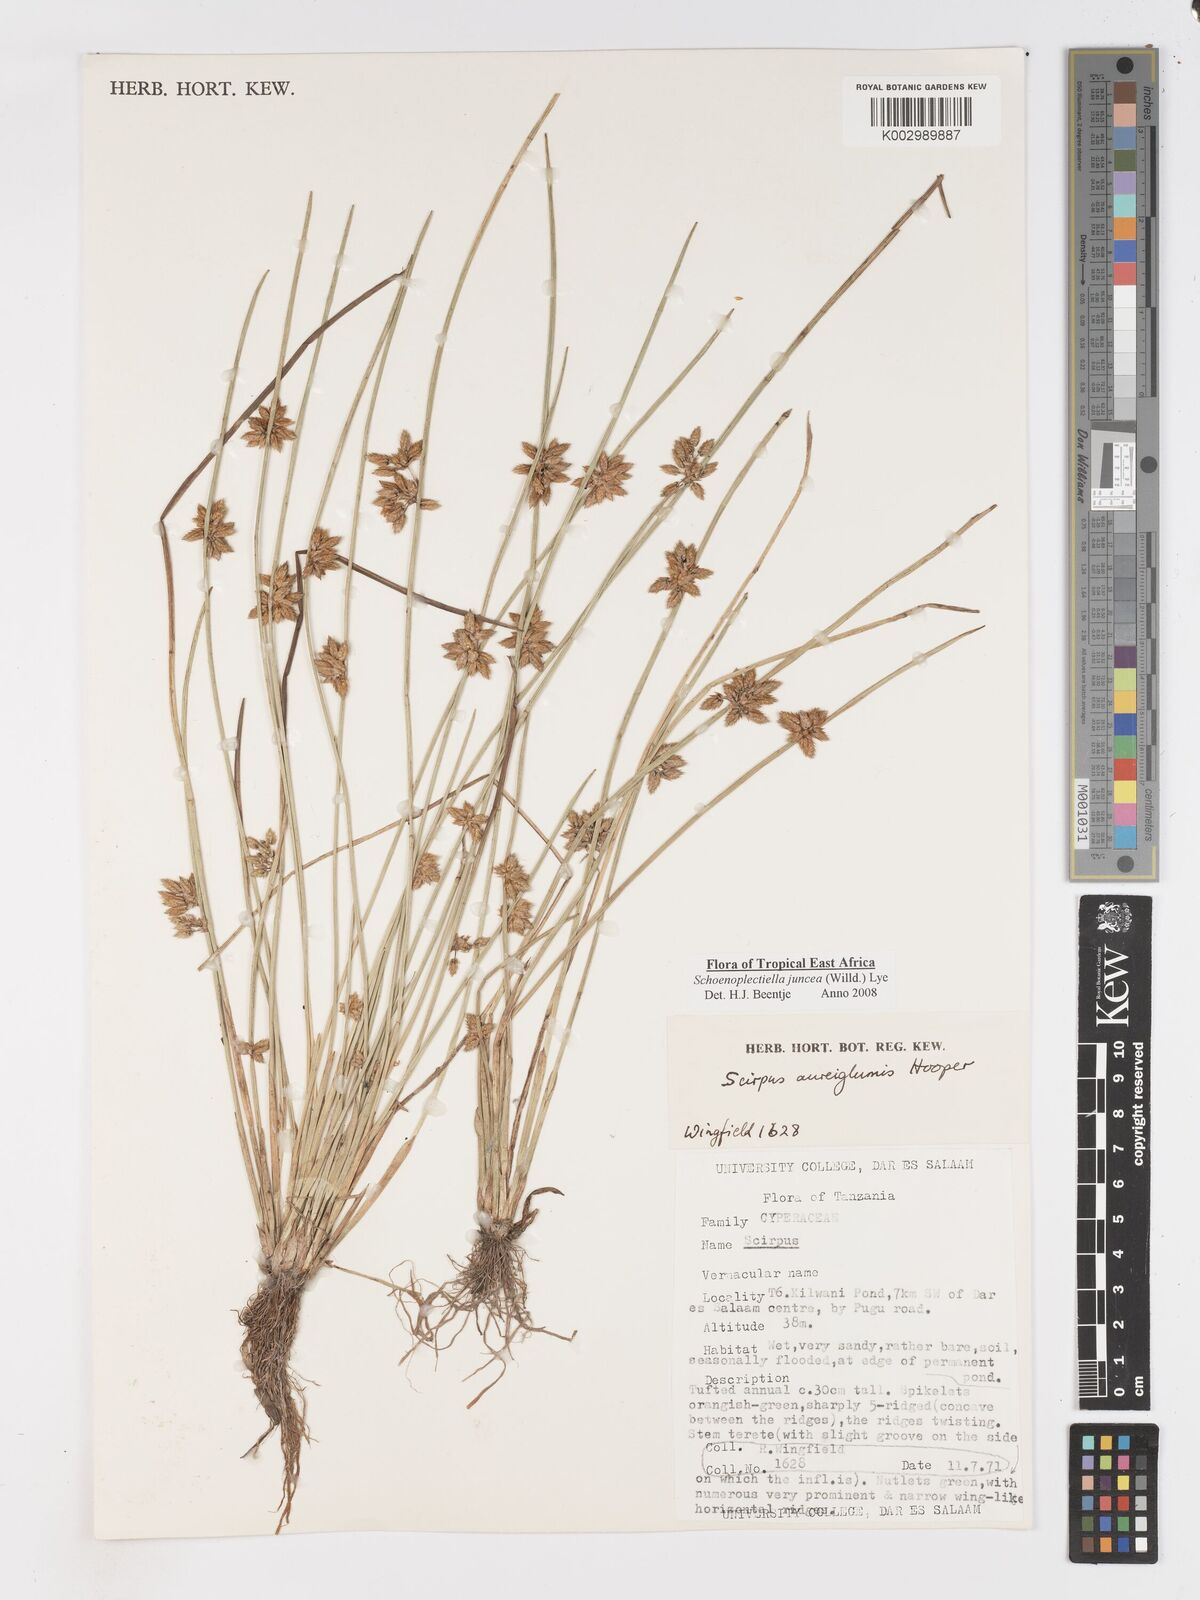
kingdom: Plantae
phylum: Tracheophyta
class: Liliopsida
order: Poales
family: Cyperaceae
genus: Schoenoplectiella
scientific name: Schoenoplectiella juncea
